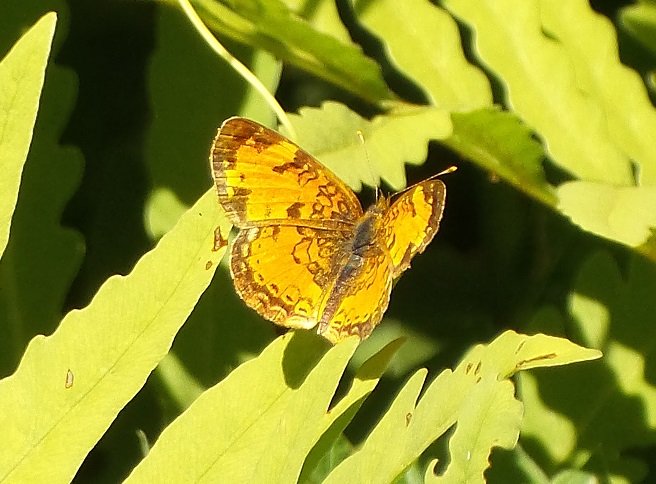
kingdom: Animalia
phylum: Arthropoda
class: Insecta
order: Lepidoptera
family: Nymphalidae
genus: Phyciodes
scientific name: Phyciodes tharos
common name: Northern Crescent
